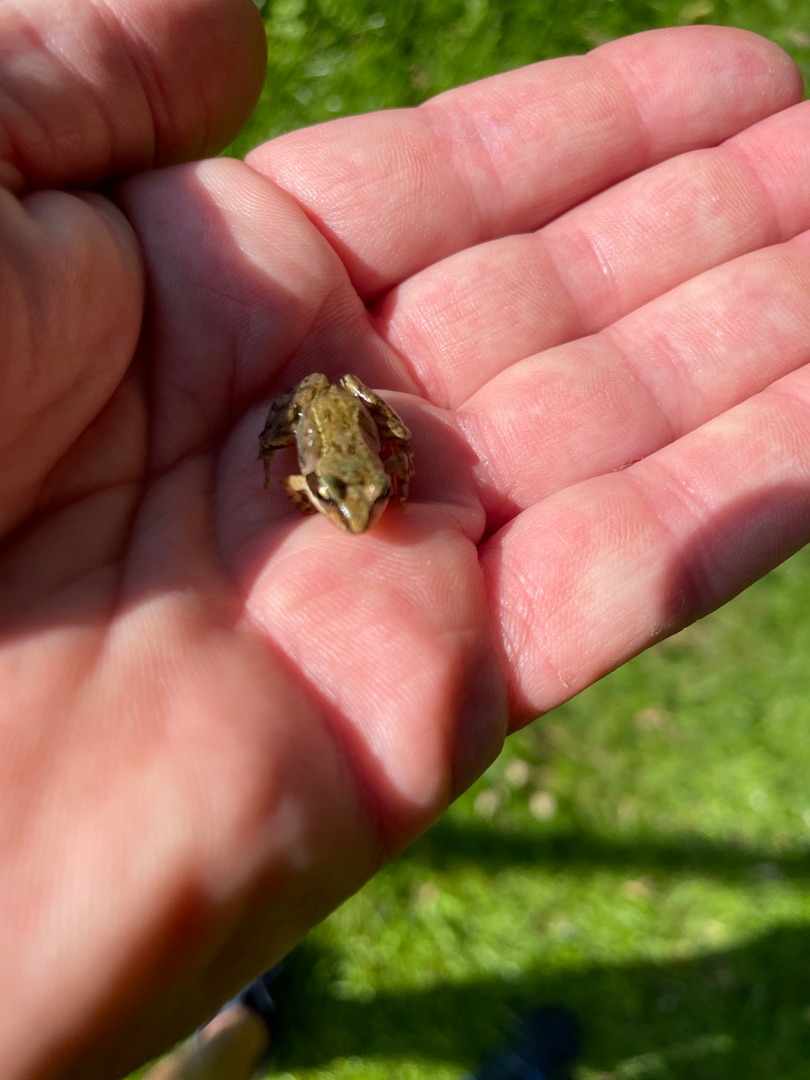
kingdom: Animalia
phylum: Chordata
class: Amphibia
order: Anura
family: Ranidae
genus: Rana
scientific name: Rana temporaria
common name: Butsnudet frø
